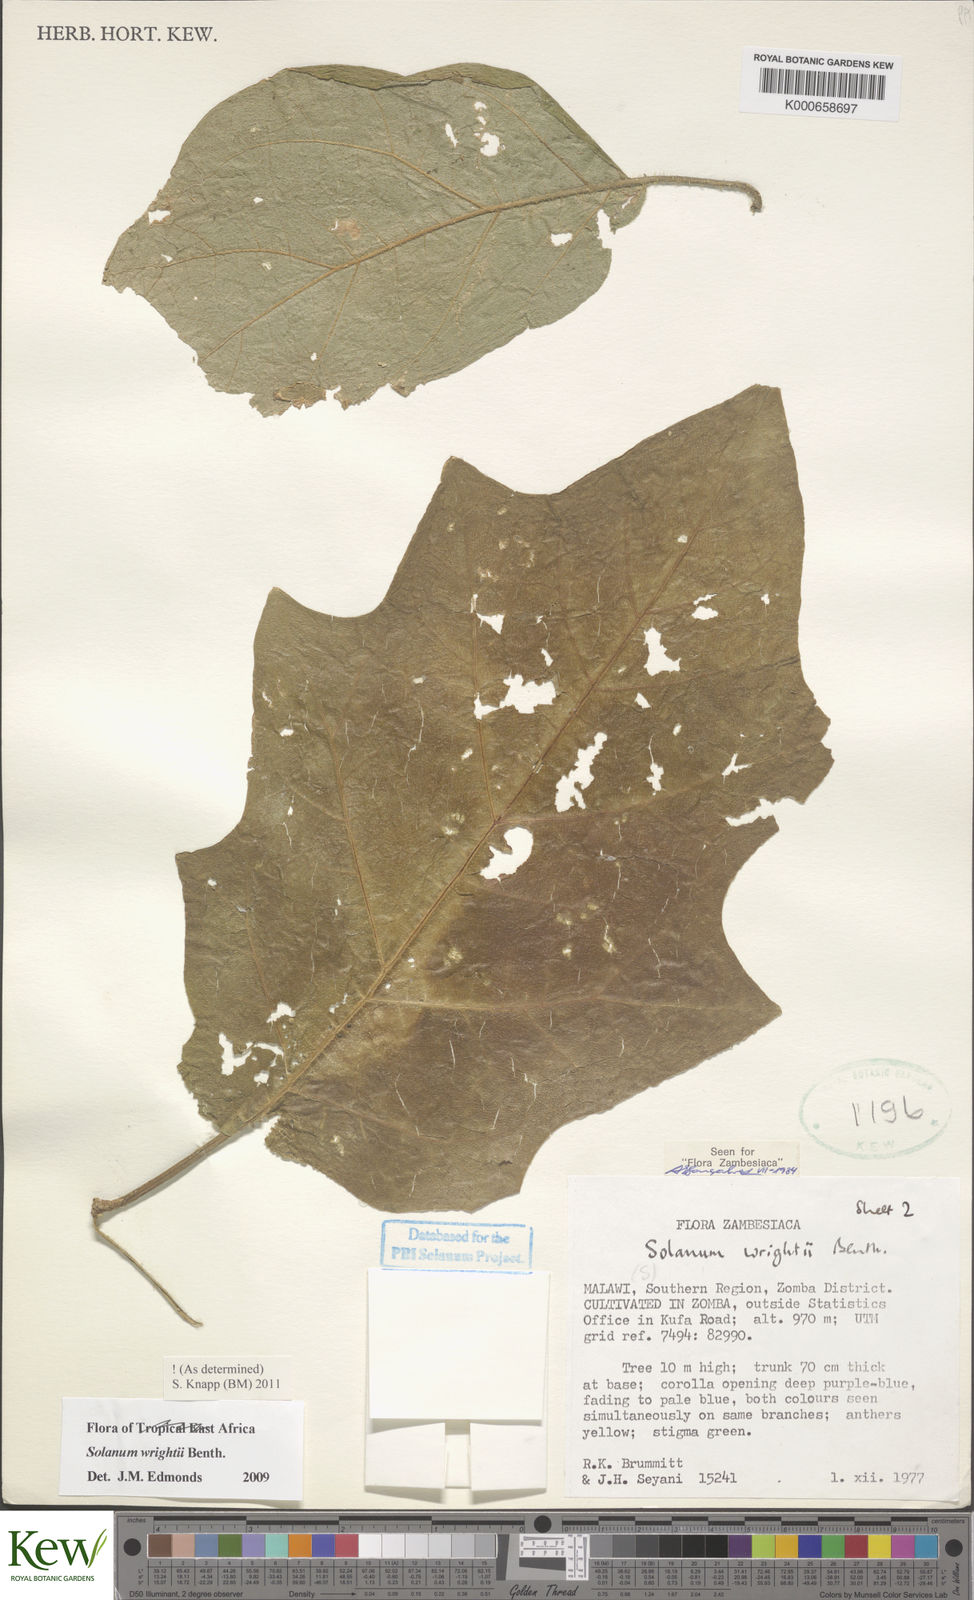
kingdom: Plantae
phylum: Tracheophyta
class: Magnoliopsida
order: Solanales
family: Solanaceae
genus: Solanum
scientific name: Solanum wrightii
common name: Brazilian potato-tree
